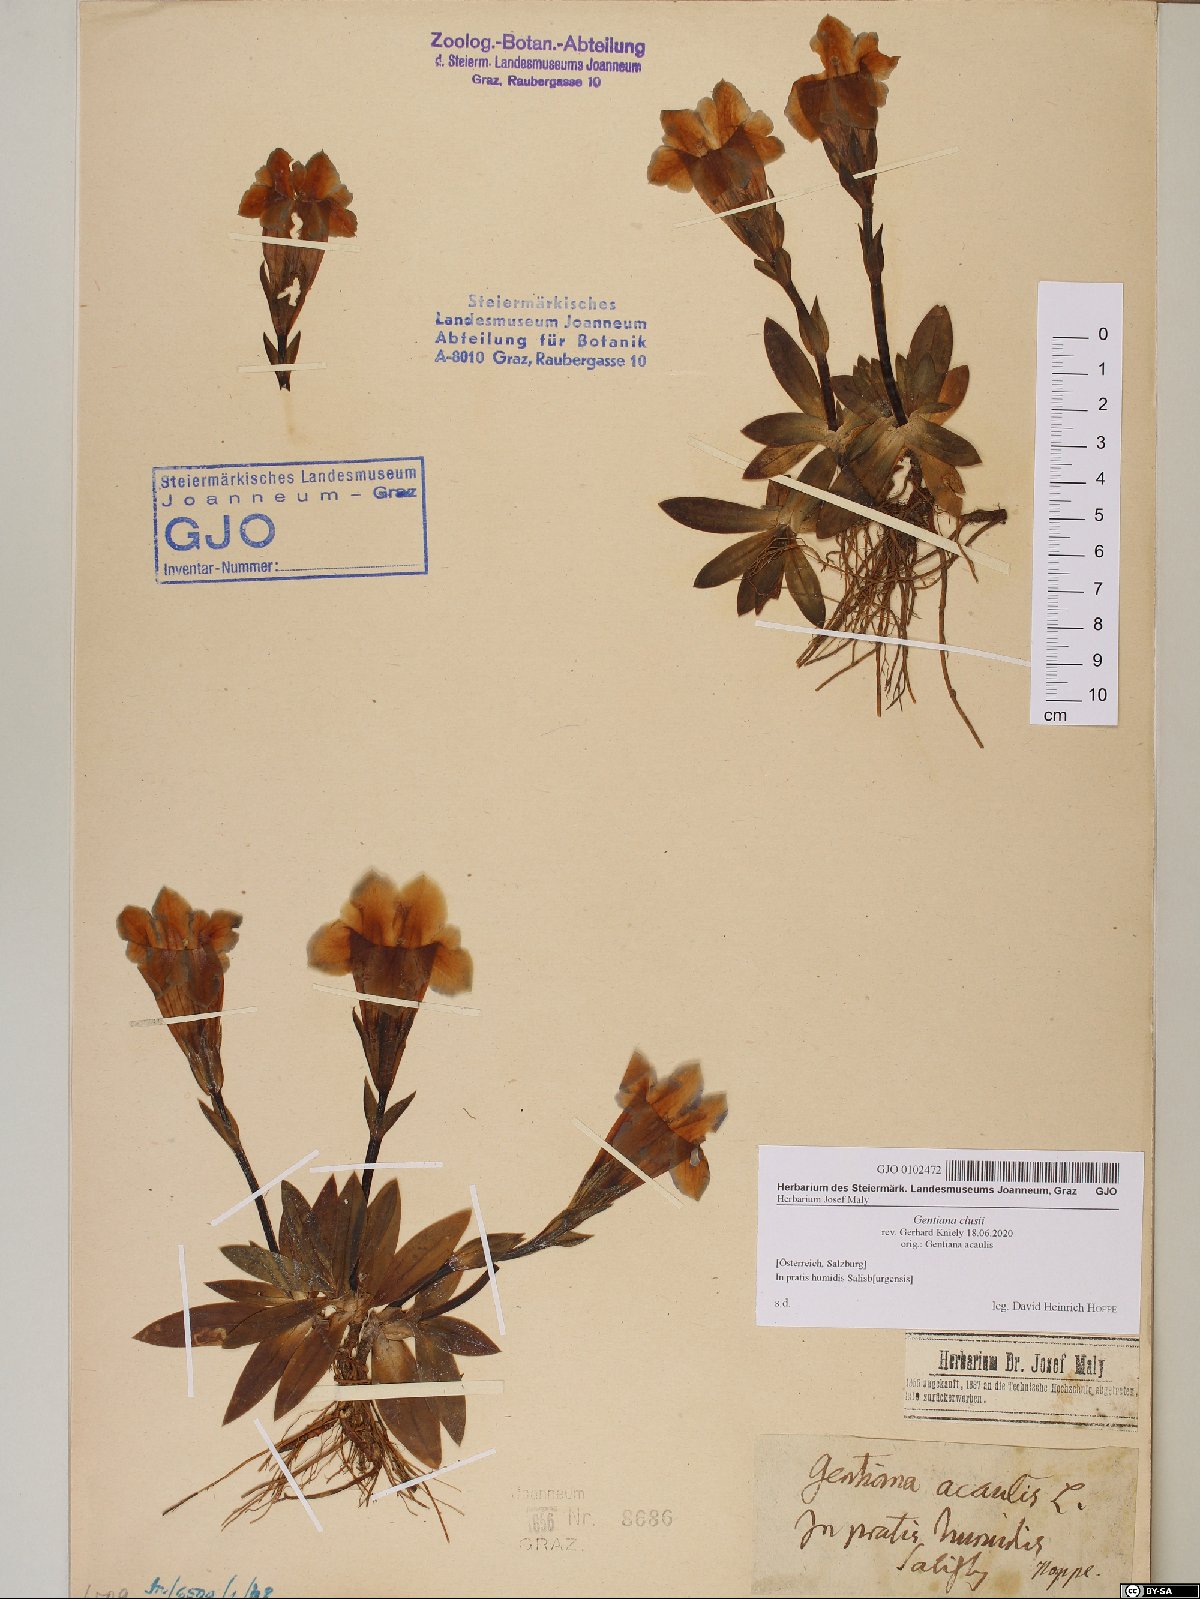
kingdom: Plantae
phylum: Tracheophyta
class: Magnoliopsida
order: Gentianales
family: Gentianaceae
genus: Gentiana
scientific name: Gentiana clusii
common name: Trumpet gentian
